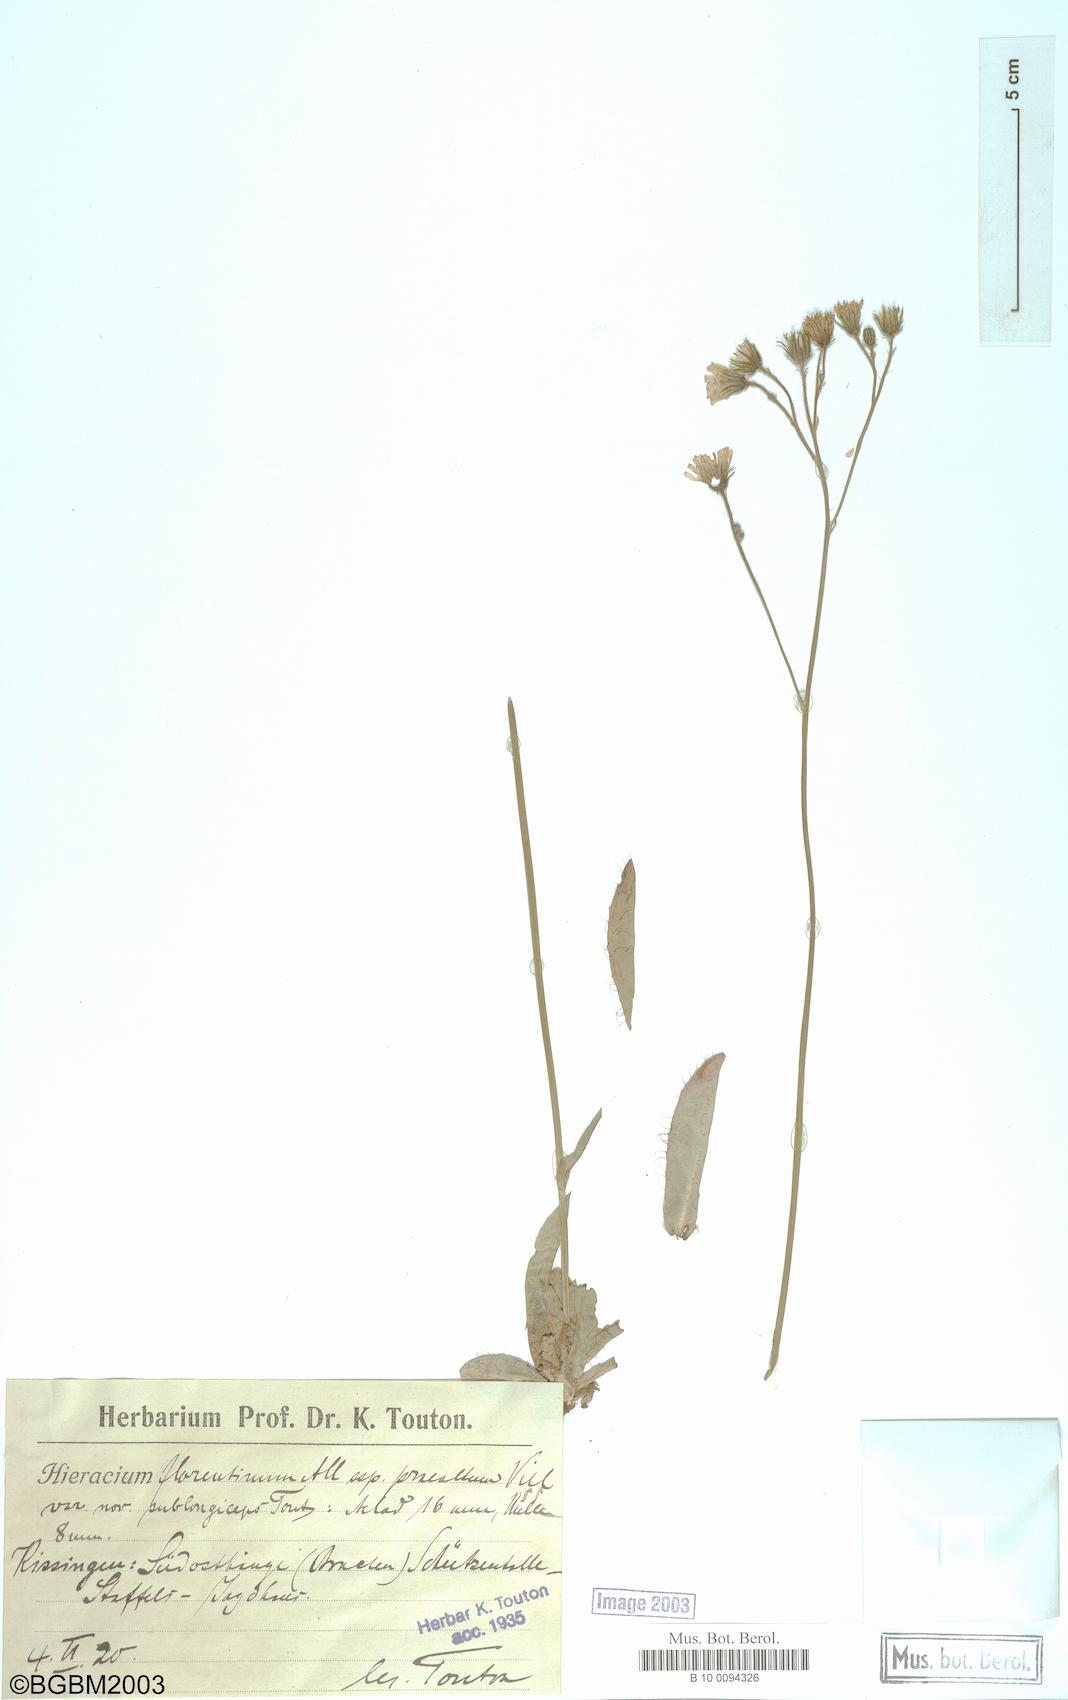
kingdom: Plantae
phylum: Tracheophyta
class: Magnoliopsida
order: Asterales
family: Asteraceae
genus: Hieracium
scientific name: Hieracium florentinum
